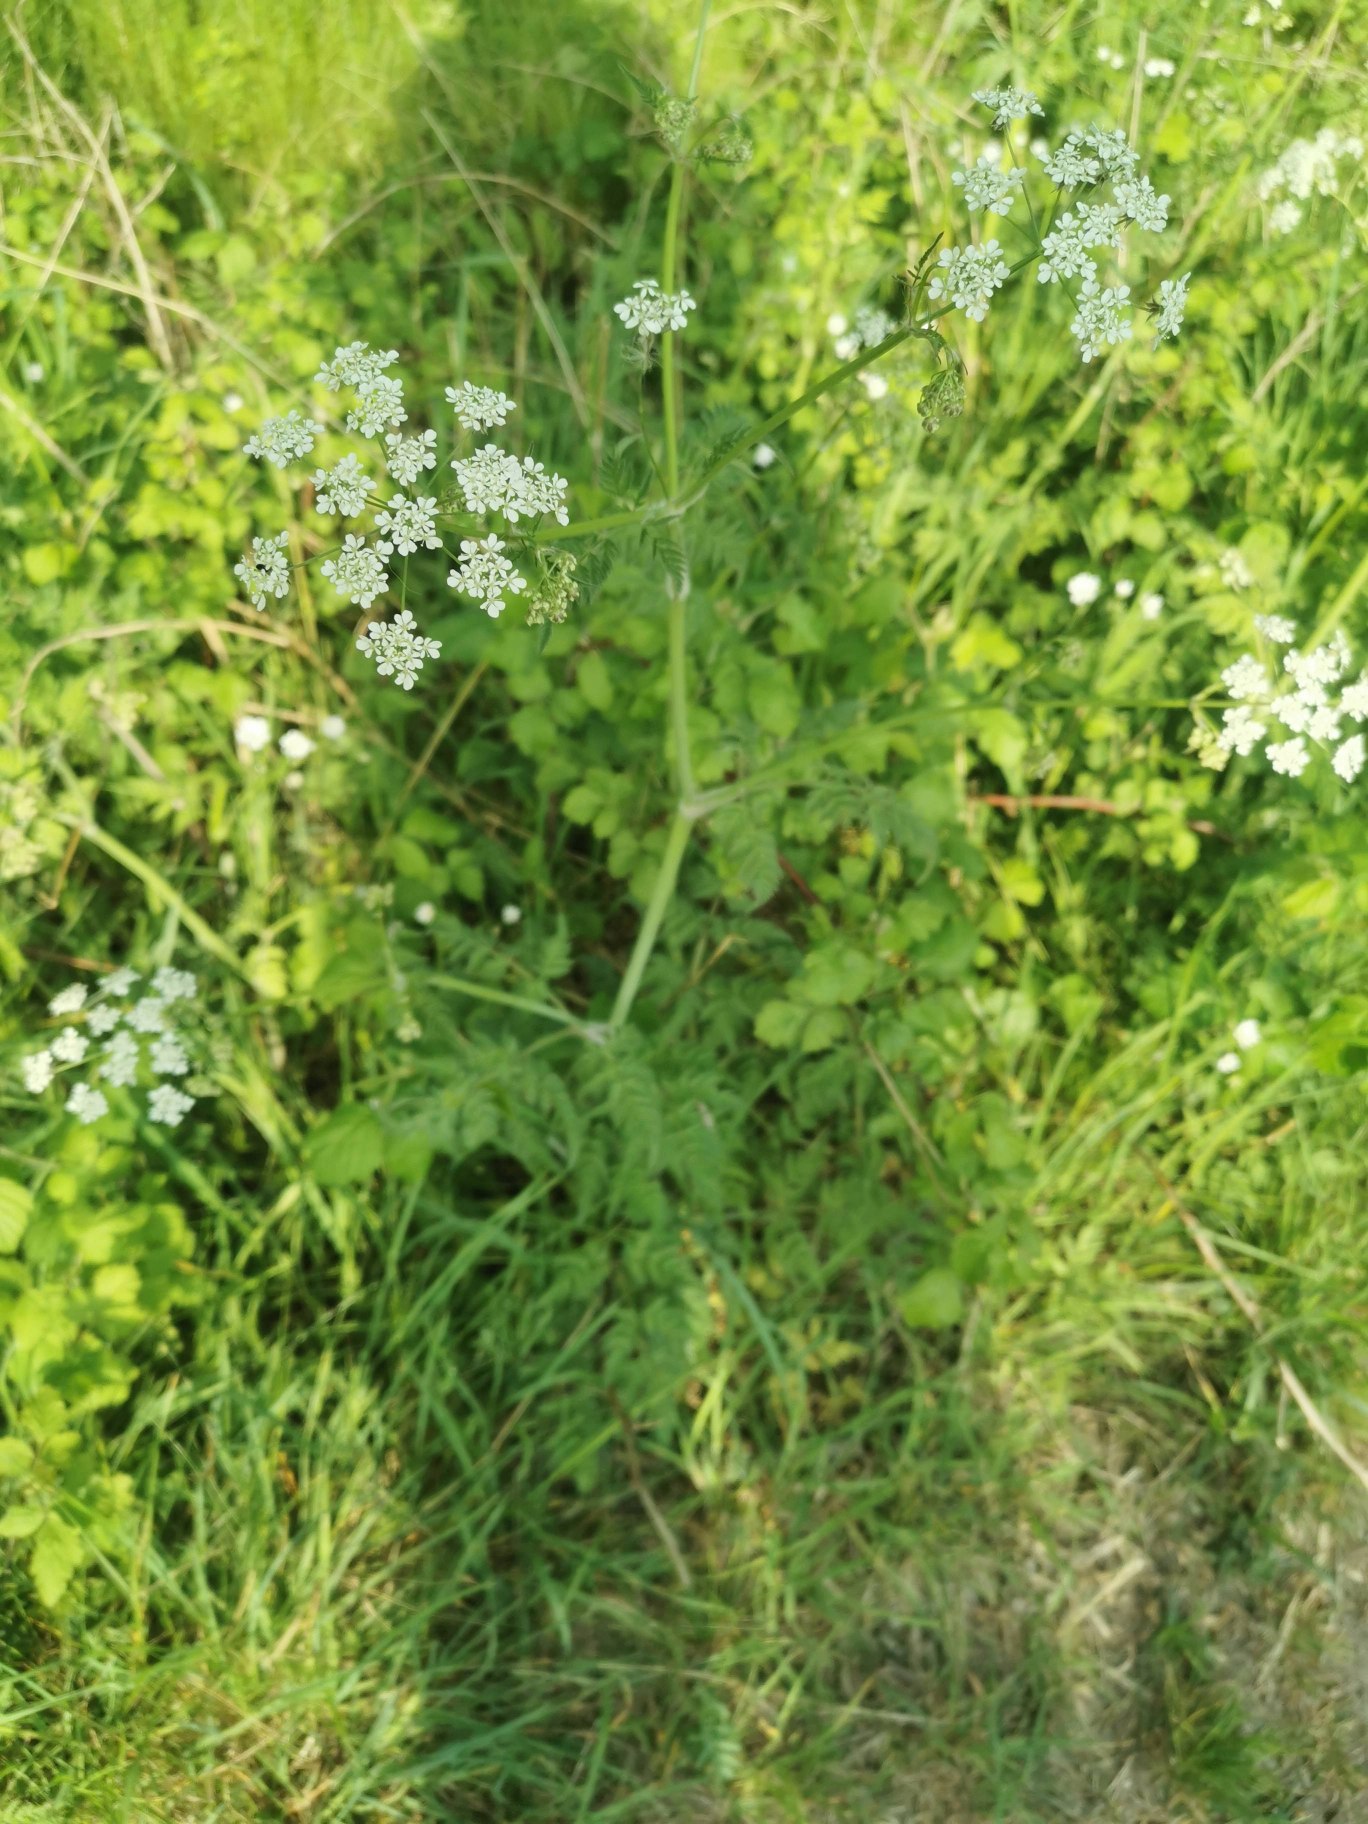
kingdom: Plantae
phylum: Tracheophyta
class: Magnoliopsida
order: Apiales
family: Apiaceae
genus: Anthriscus
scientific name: Anthriscus sylvestris
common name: Vild kørvel
